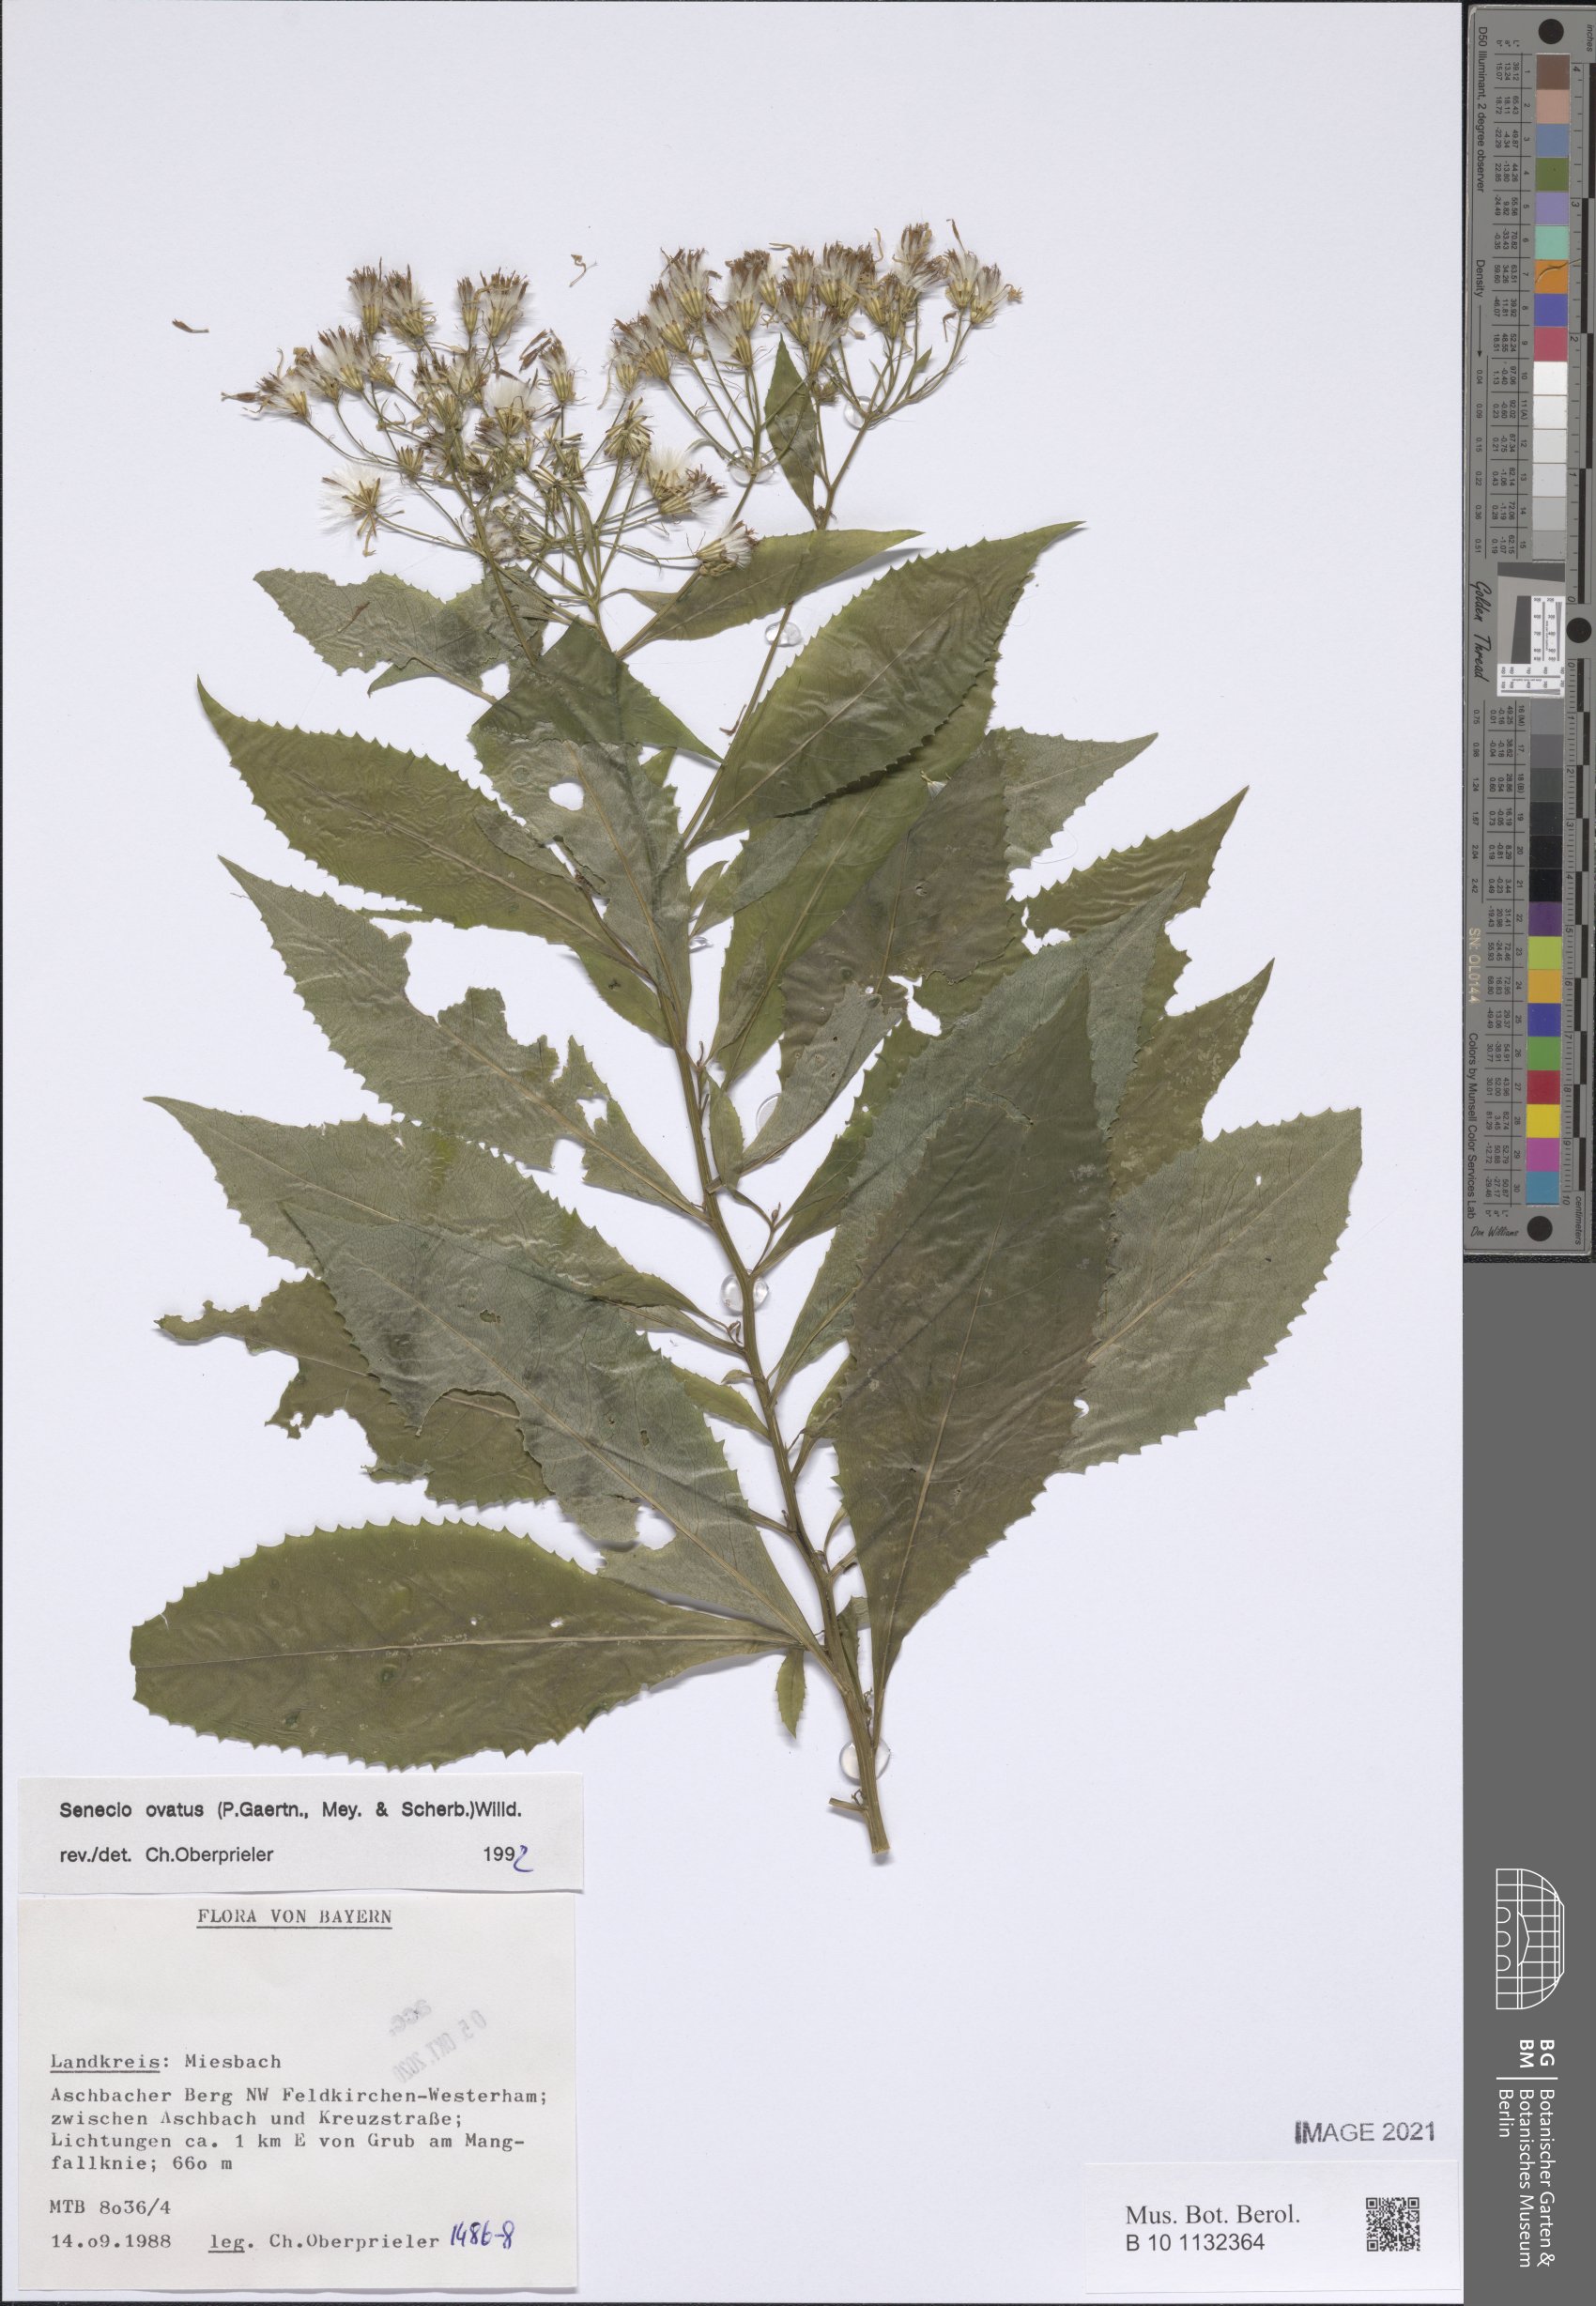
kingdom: Plantae
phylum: Tracheophyta
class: Magnoliopsida
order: Asterales
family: Asteraceae
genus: Senecio
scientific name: Senecio ovatus
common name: Wood ragwort
